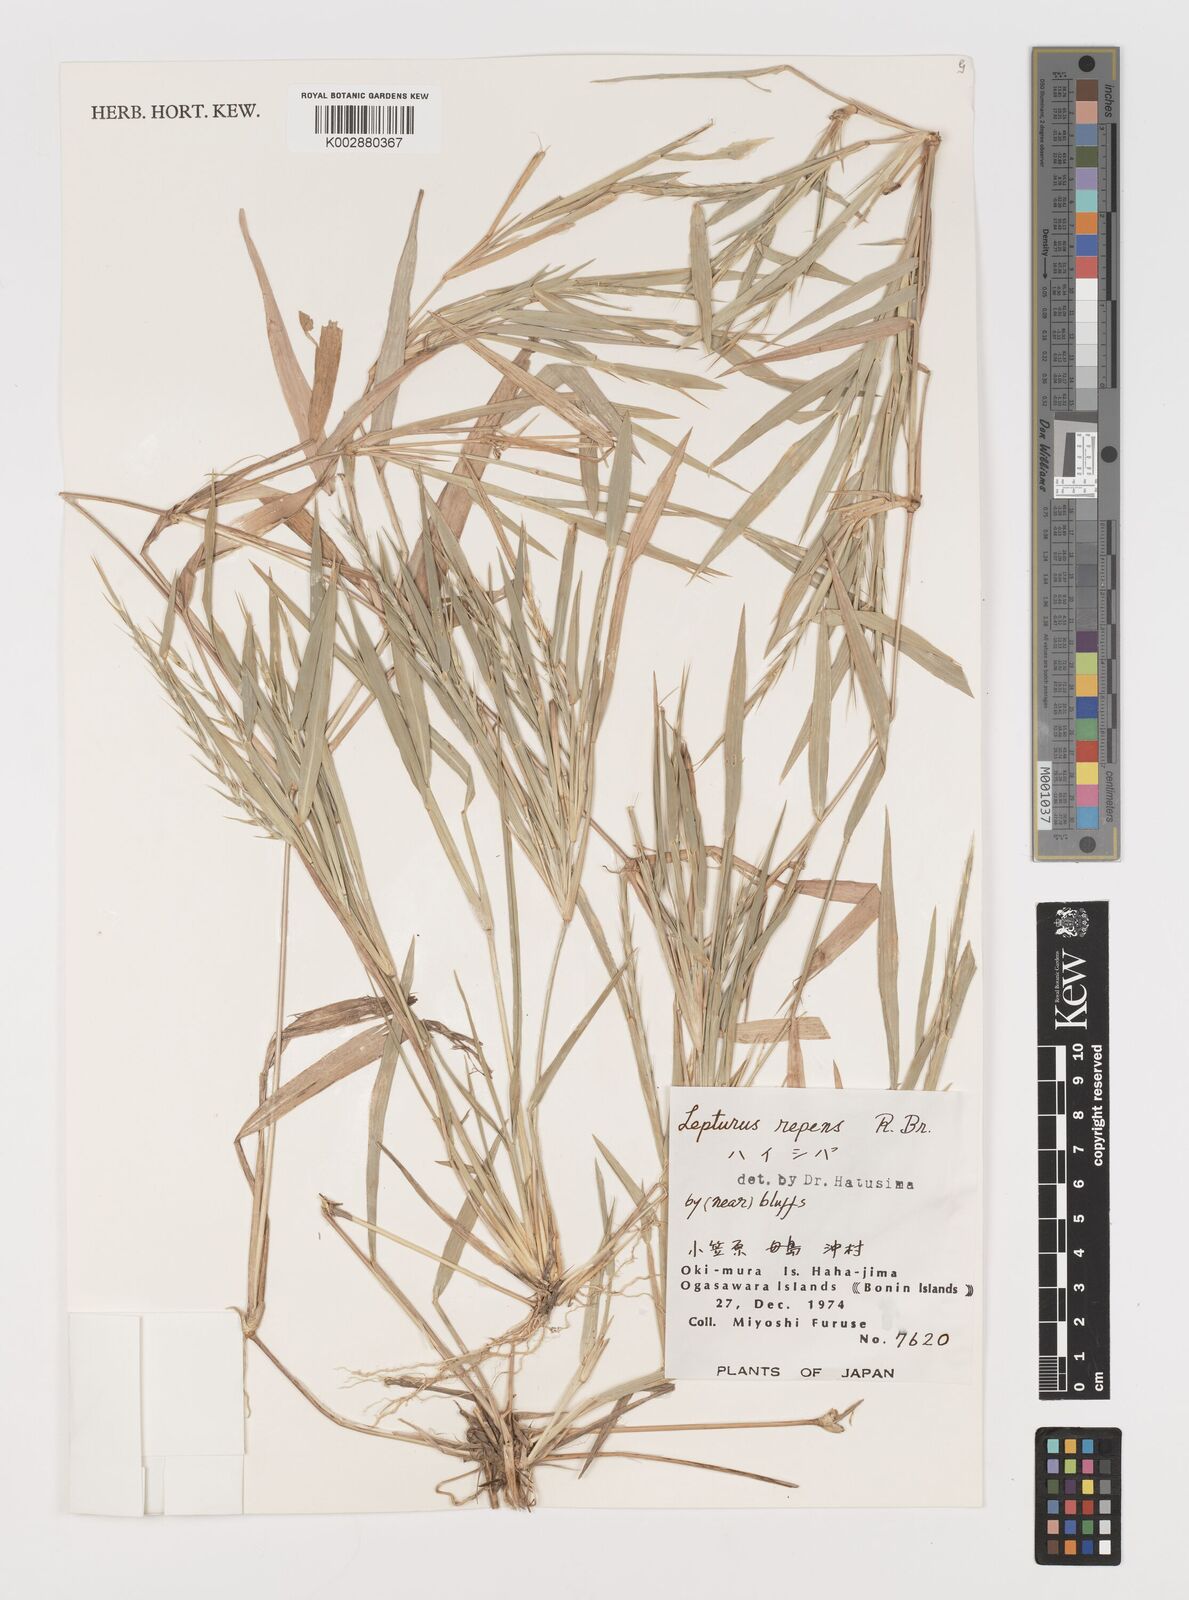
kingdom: Plantae
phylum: Tracheophyta
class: Liliopsida
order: Poales
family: Poaceae
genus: Lepturus
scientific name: Lepturus repens
